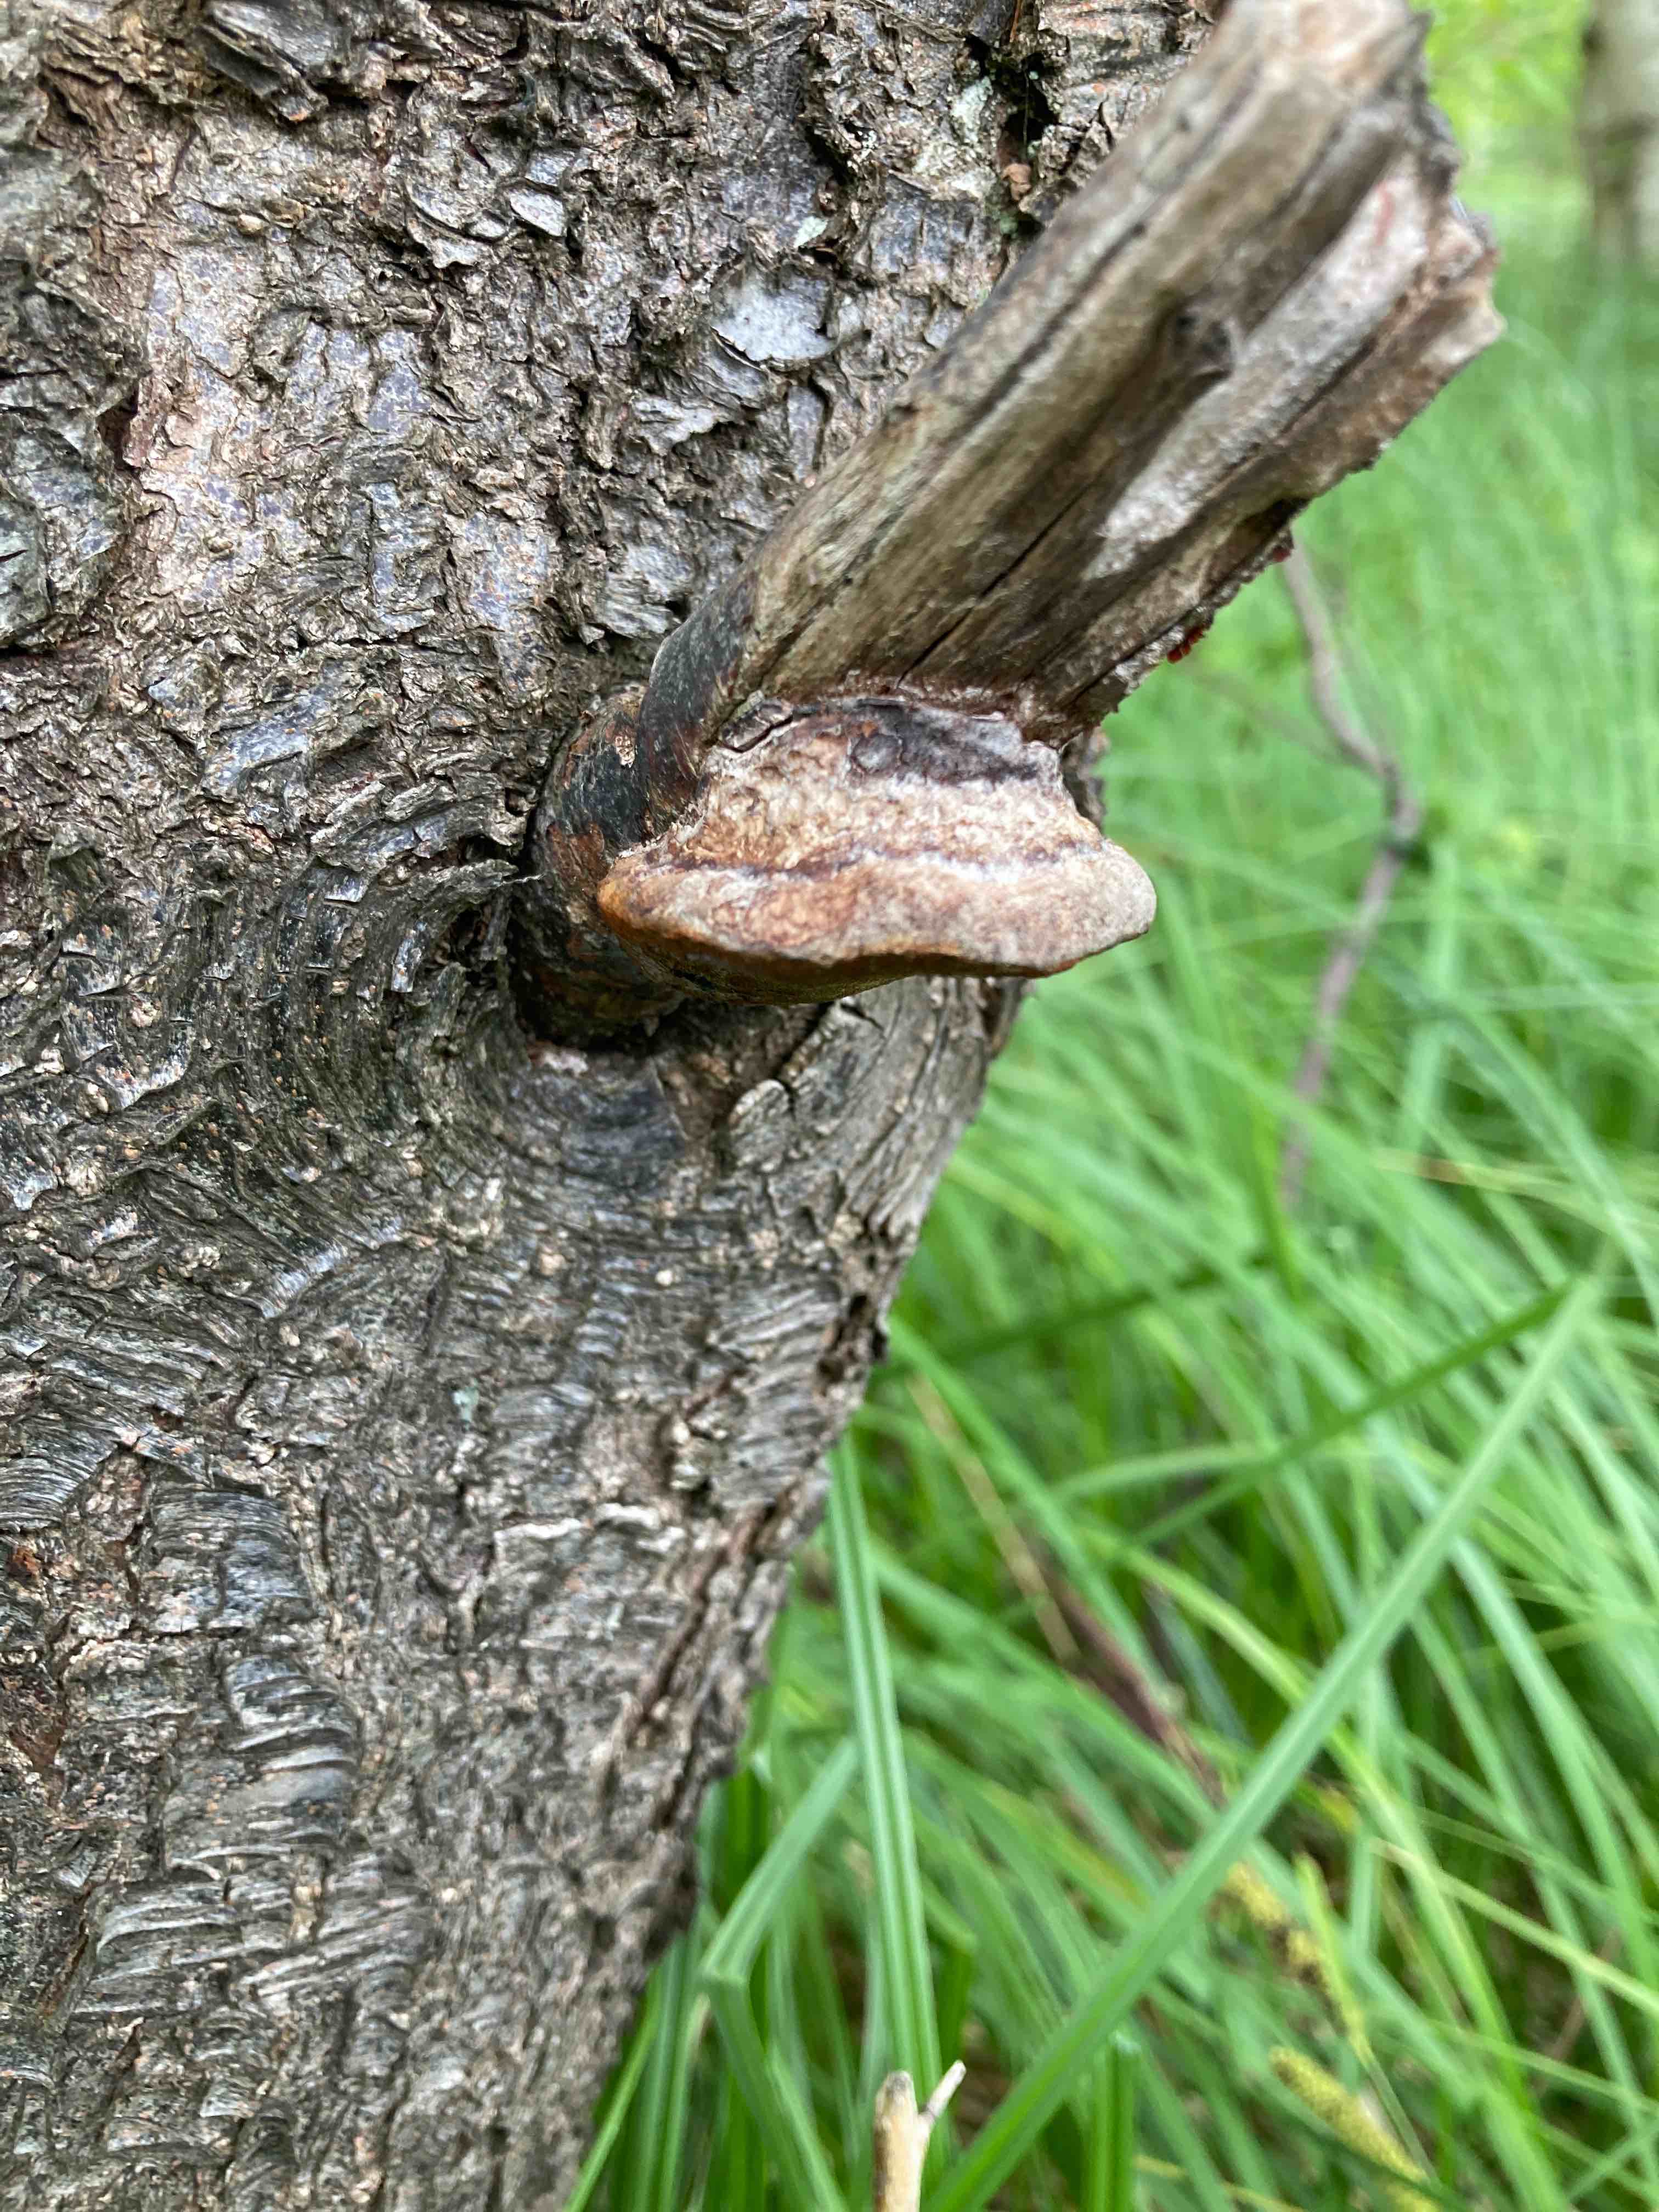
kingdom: Fungi
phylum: Basidiomycota
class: Agaricomycetes
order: Hymenochaetales
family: Hymenochaetaceae
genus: Phellinus
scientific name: Phellinus pomaceus
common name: blomme-ildporesvamp
